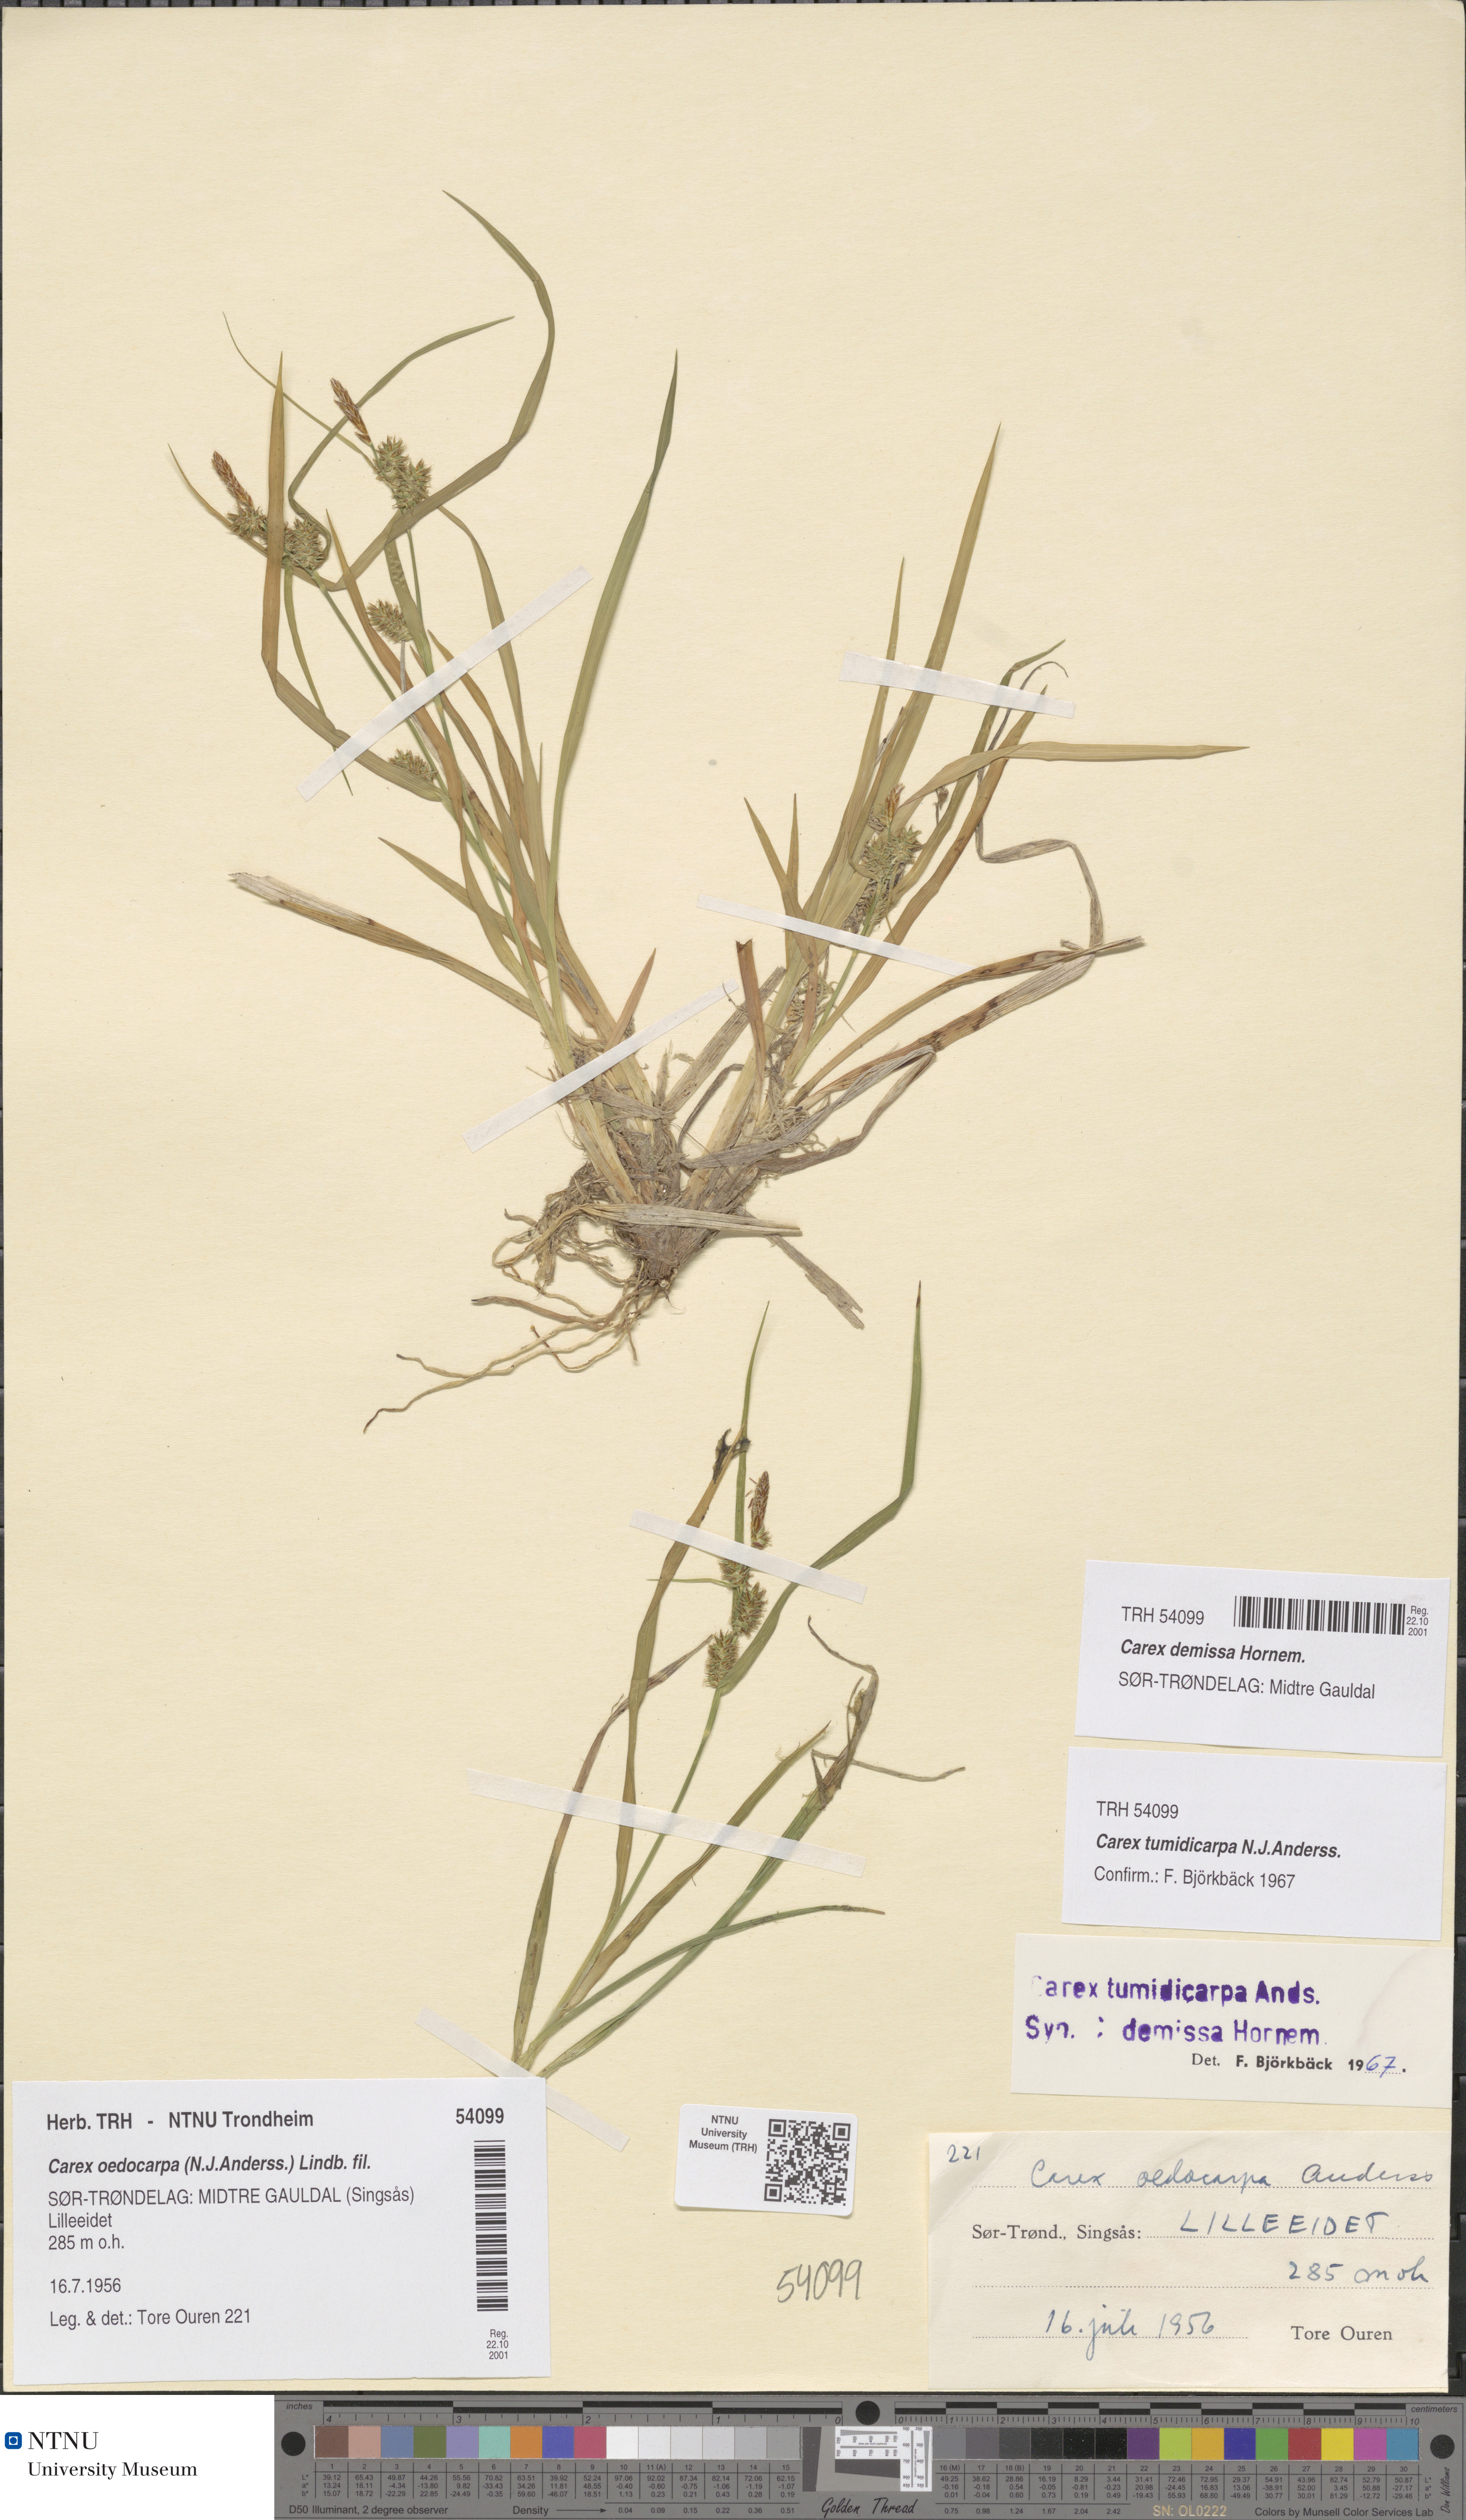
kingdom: Plantae
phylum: Tracheophyta
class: Liliopsida
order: Poales
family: Cyperaceae
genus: Carex
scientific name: Carex demissa
